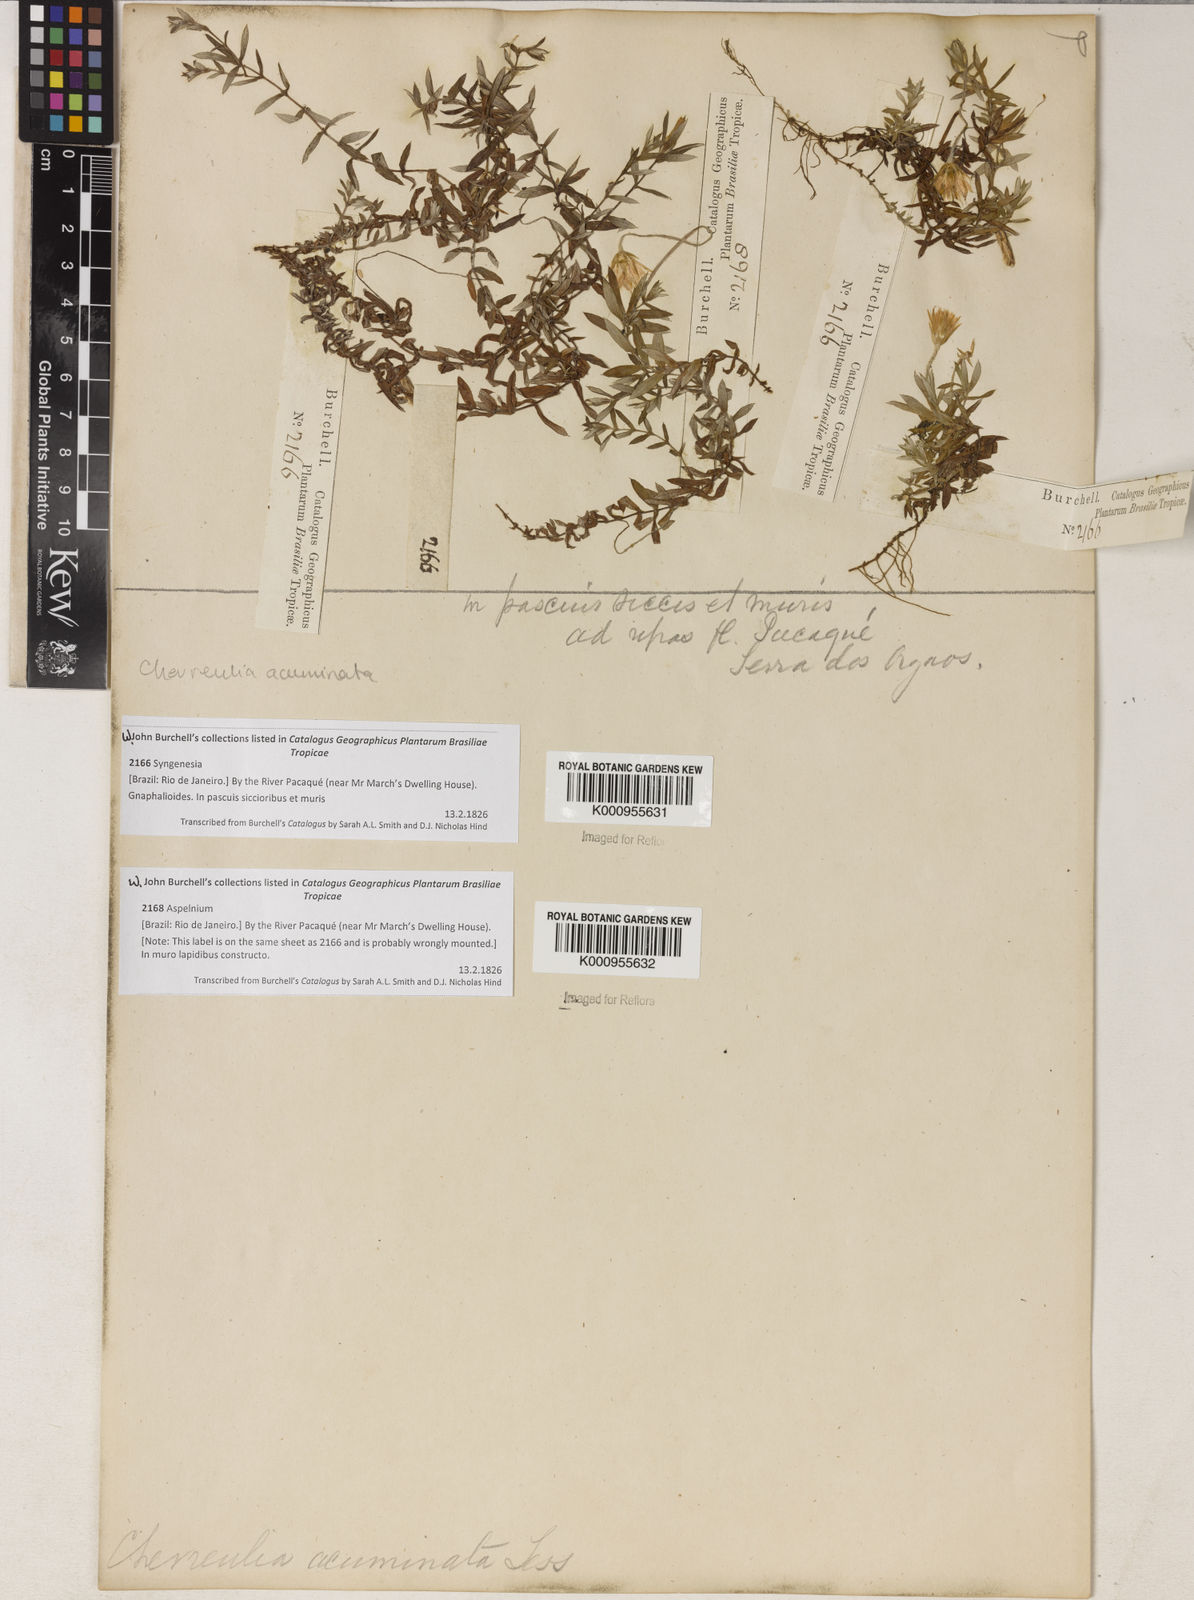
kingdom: Plantae
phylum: Tracheophyta
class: Magnoliopsida
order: Asterales
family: Asteraceae
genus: Chevreulia
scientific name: Chevreulia acuminata
